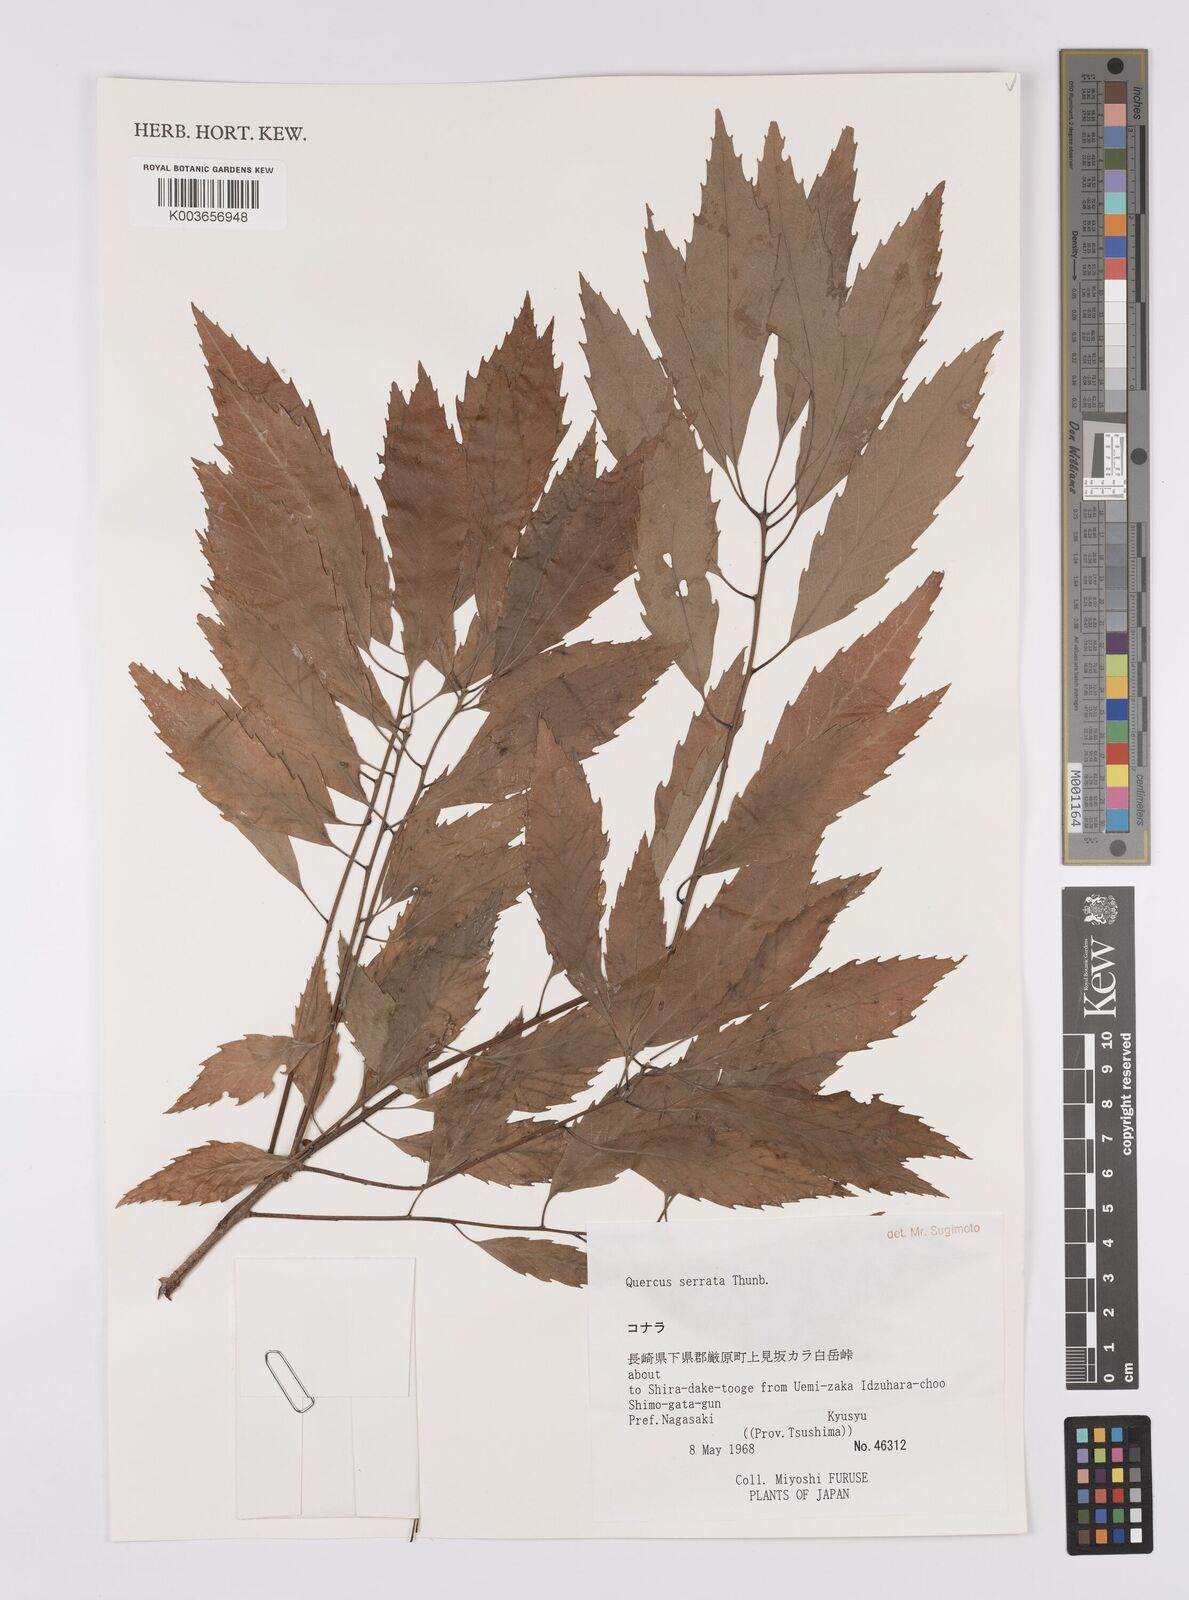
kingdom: Plantae
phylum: Tracheophyta
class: Magnoliopsida
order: Fagales
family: Fagaceae
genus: Quercus
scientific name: Quercus serrata
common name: Bao li
